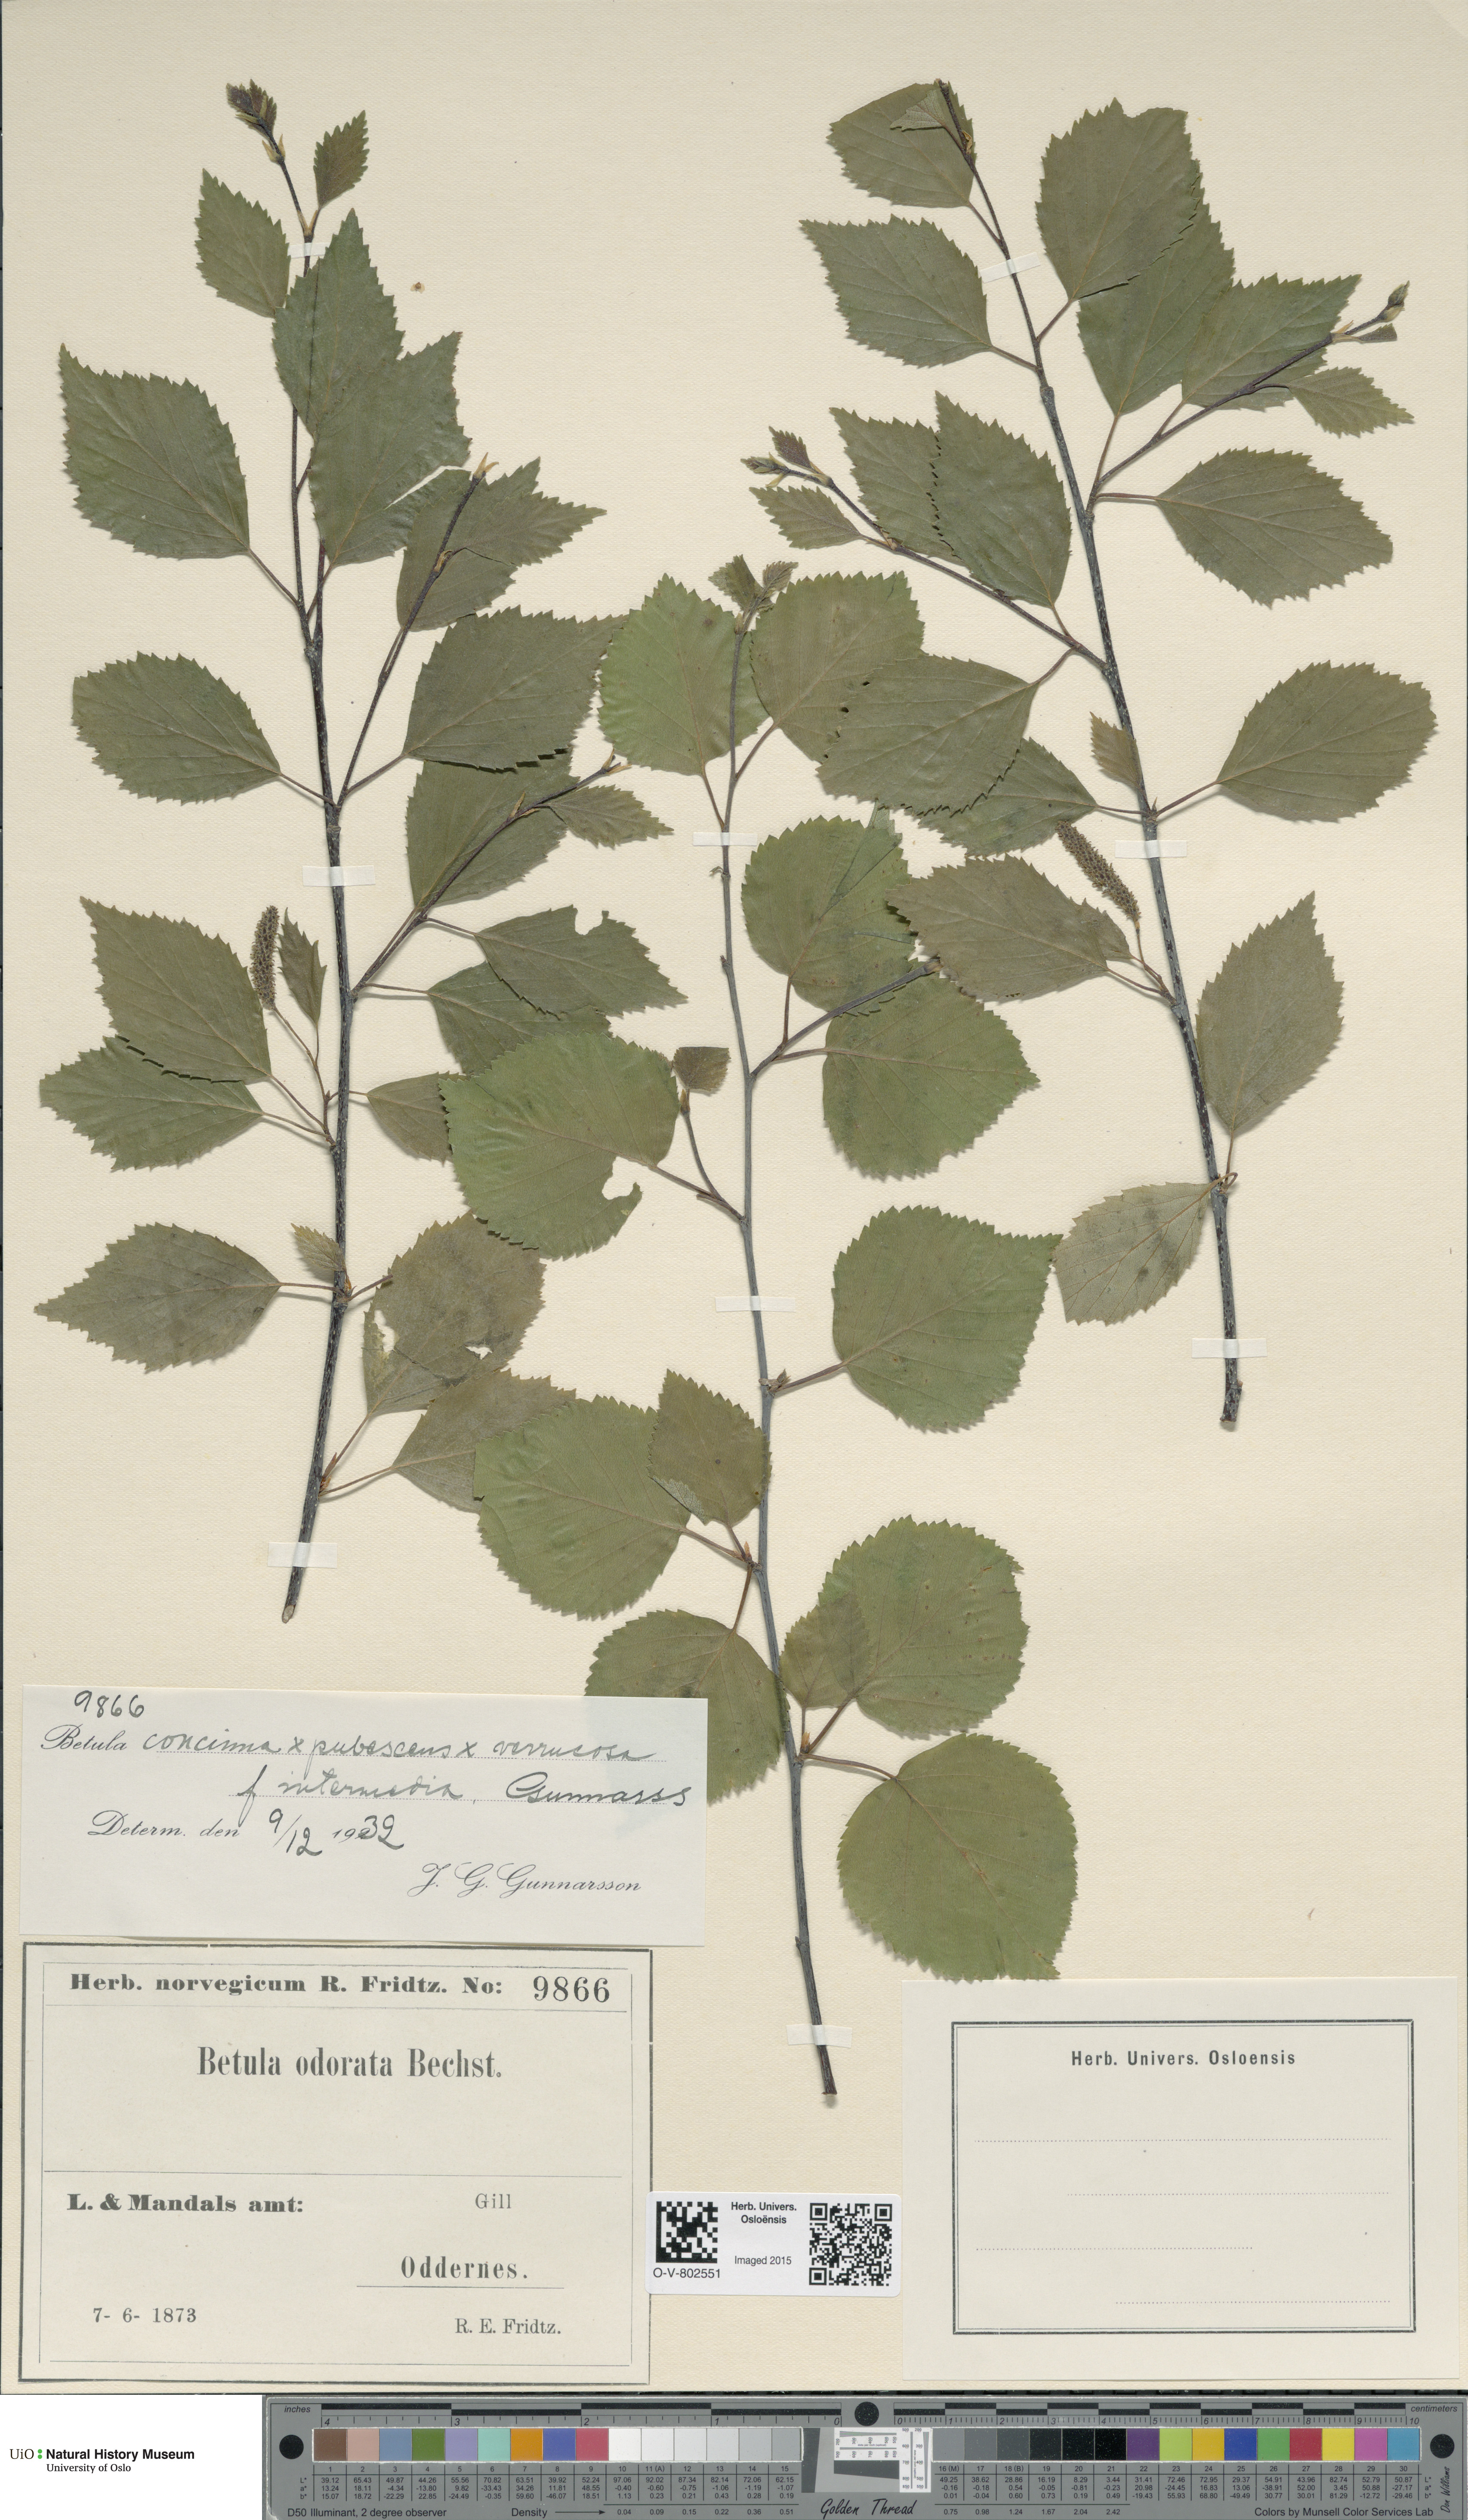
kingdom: Plantae
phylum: Tracheophyta
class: Magnoliopsida
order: Fagales
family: Betulaceae
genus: Betula
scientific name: Betula pubescens
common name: Downy birch
